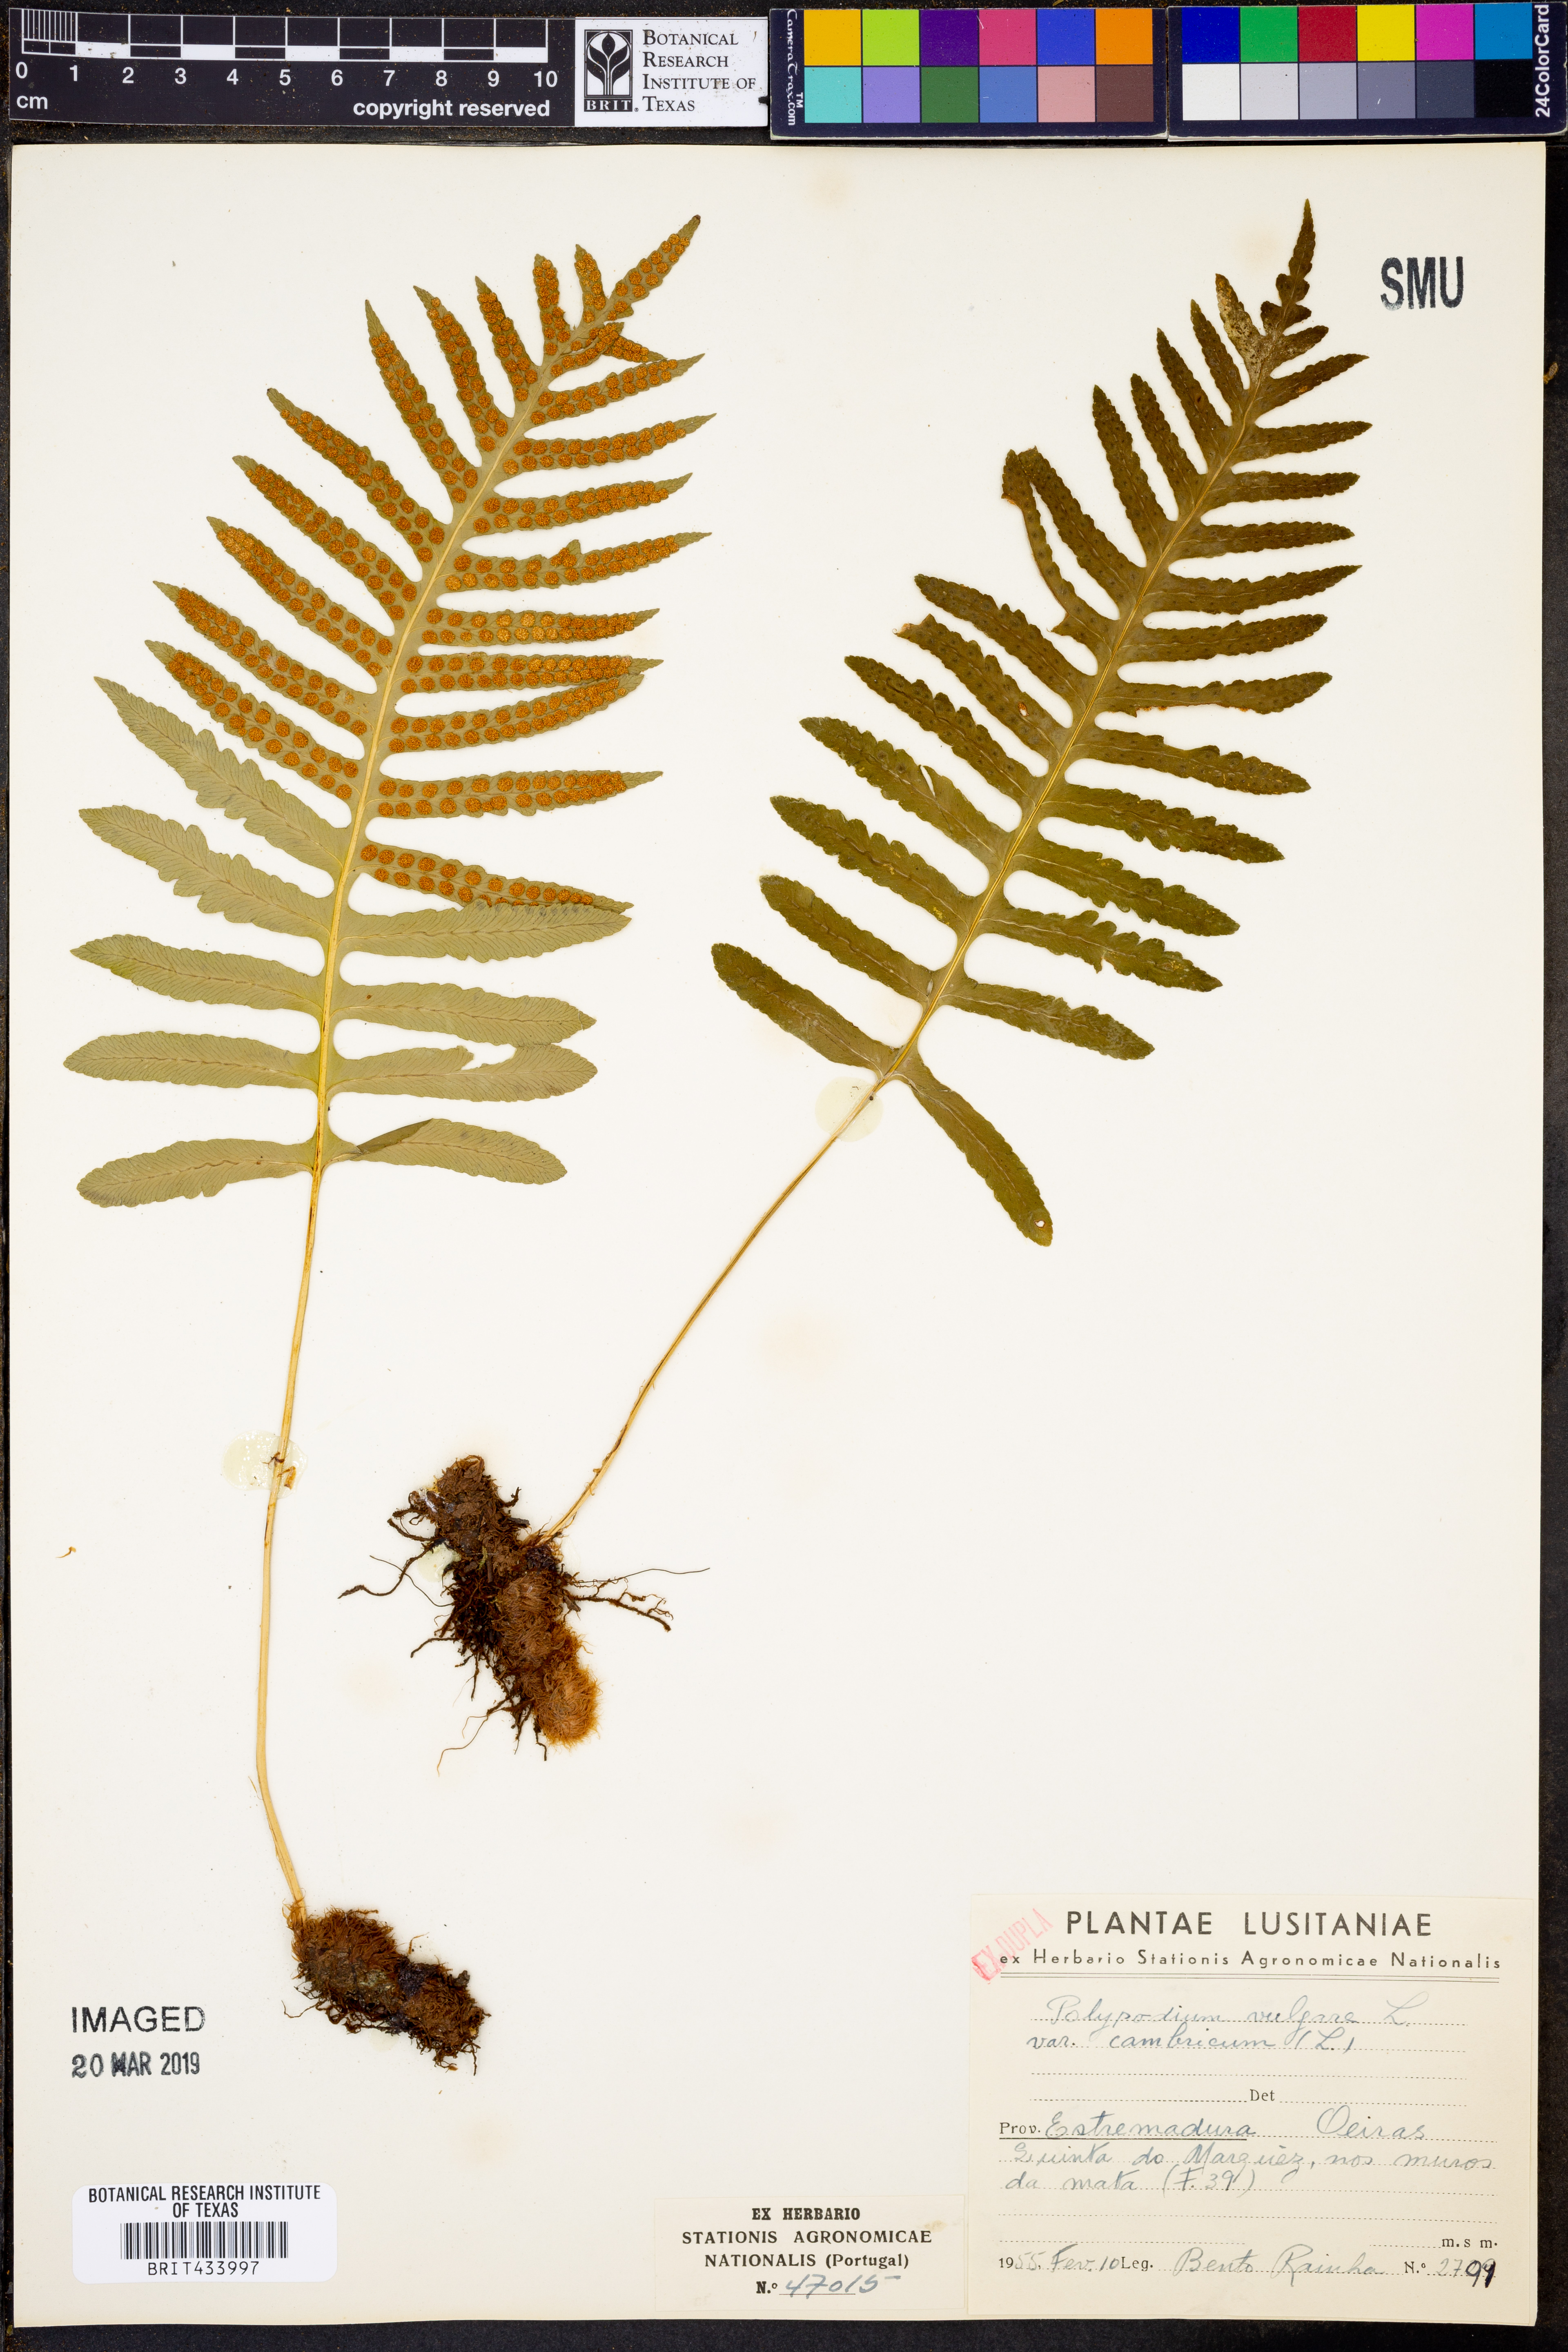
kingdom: Plantae
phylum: Tracheophyta
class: Polypodiopsida
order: Polypodiales
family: Polypodiaceae
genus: Polypodium
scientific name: Polypodium cambricum
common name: Southern polypody
